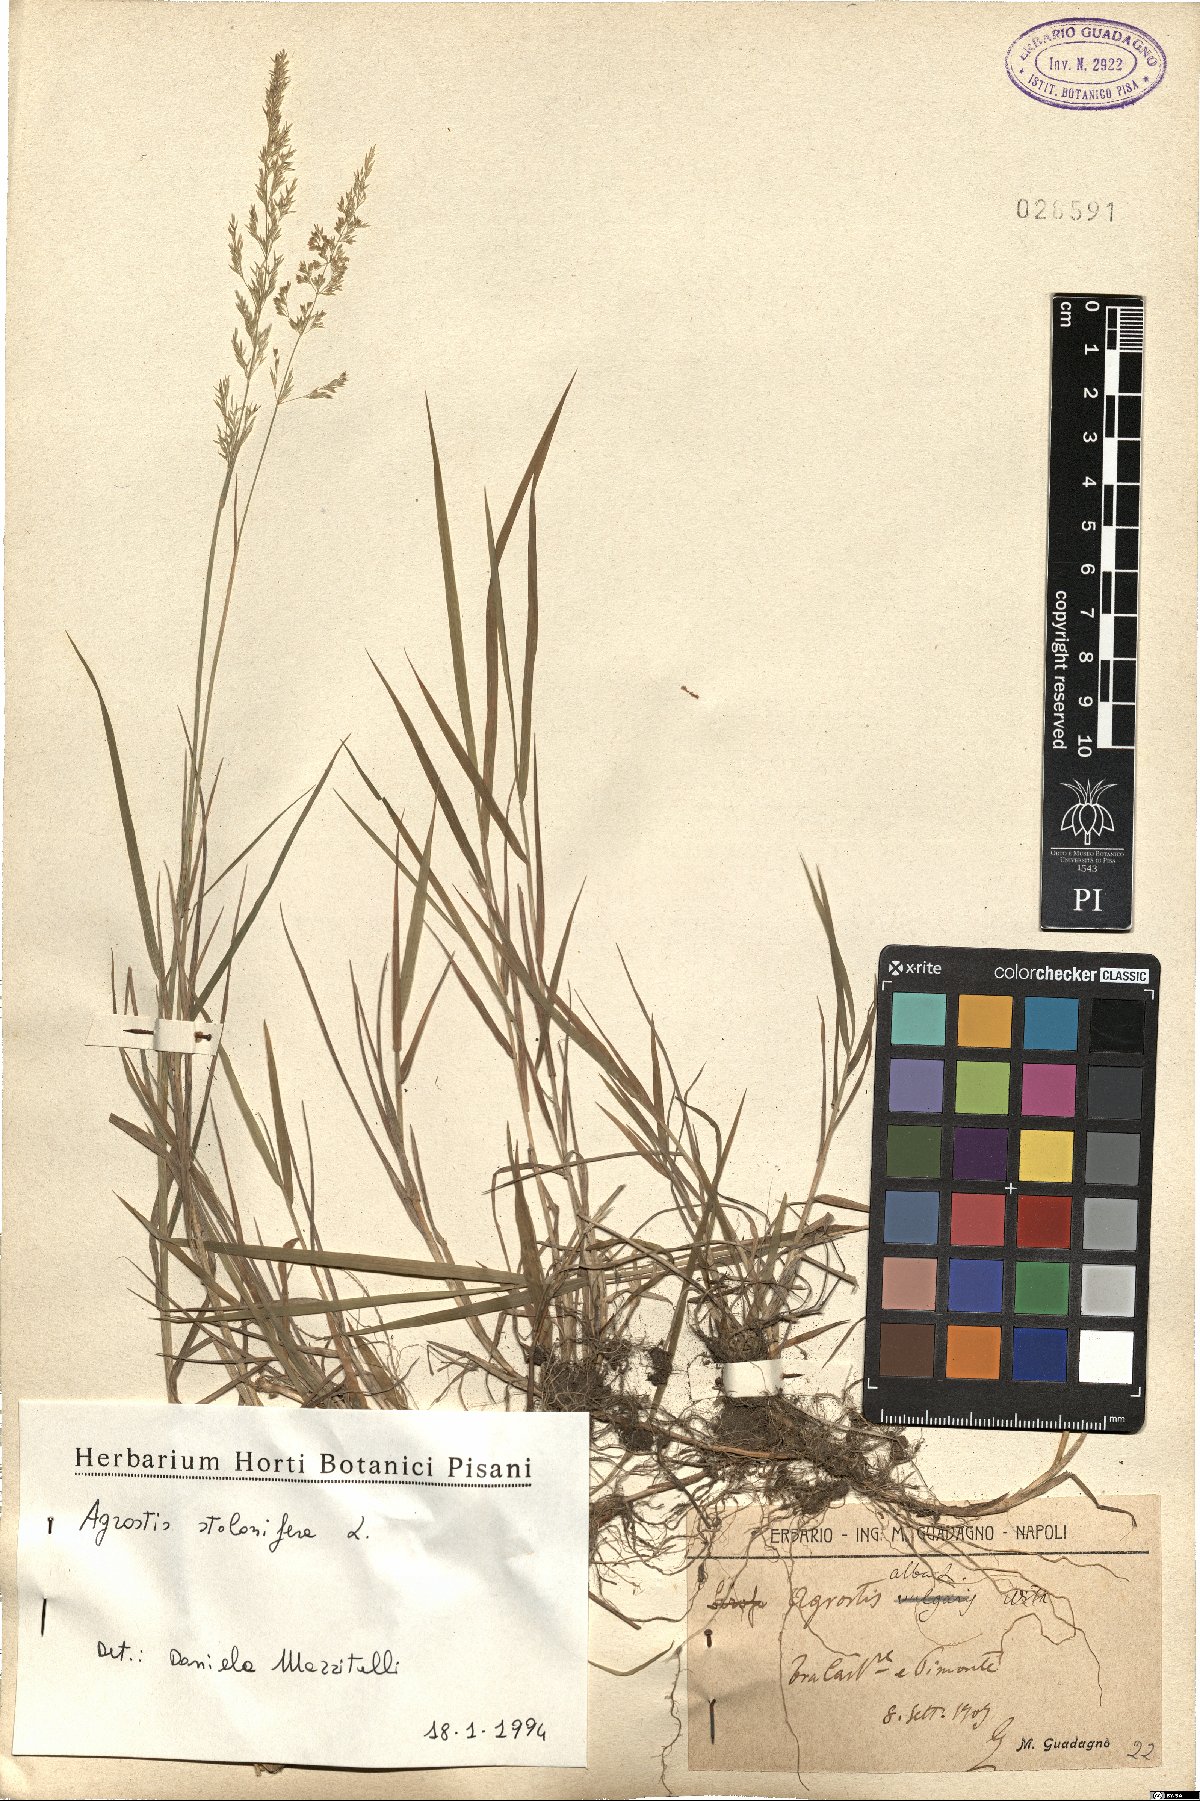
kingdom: Plantae
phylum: Tracheophyta
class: Liliopsida
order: Poales
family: Poaceae
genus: Agrostis
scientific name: Agrostis stolonifera
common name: Creeping bentgrass
